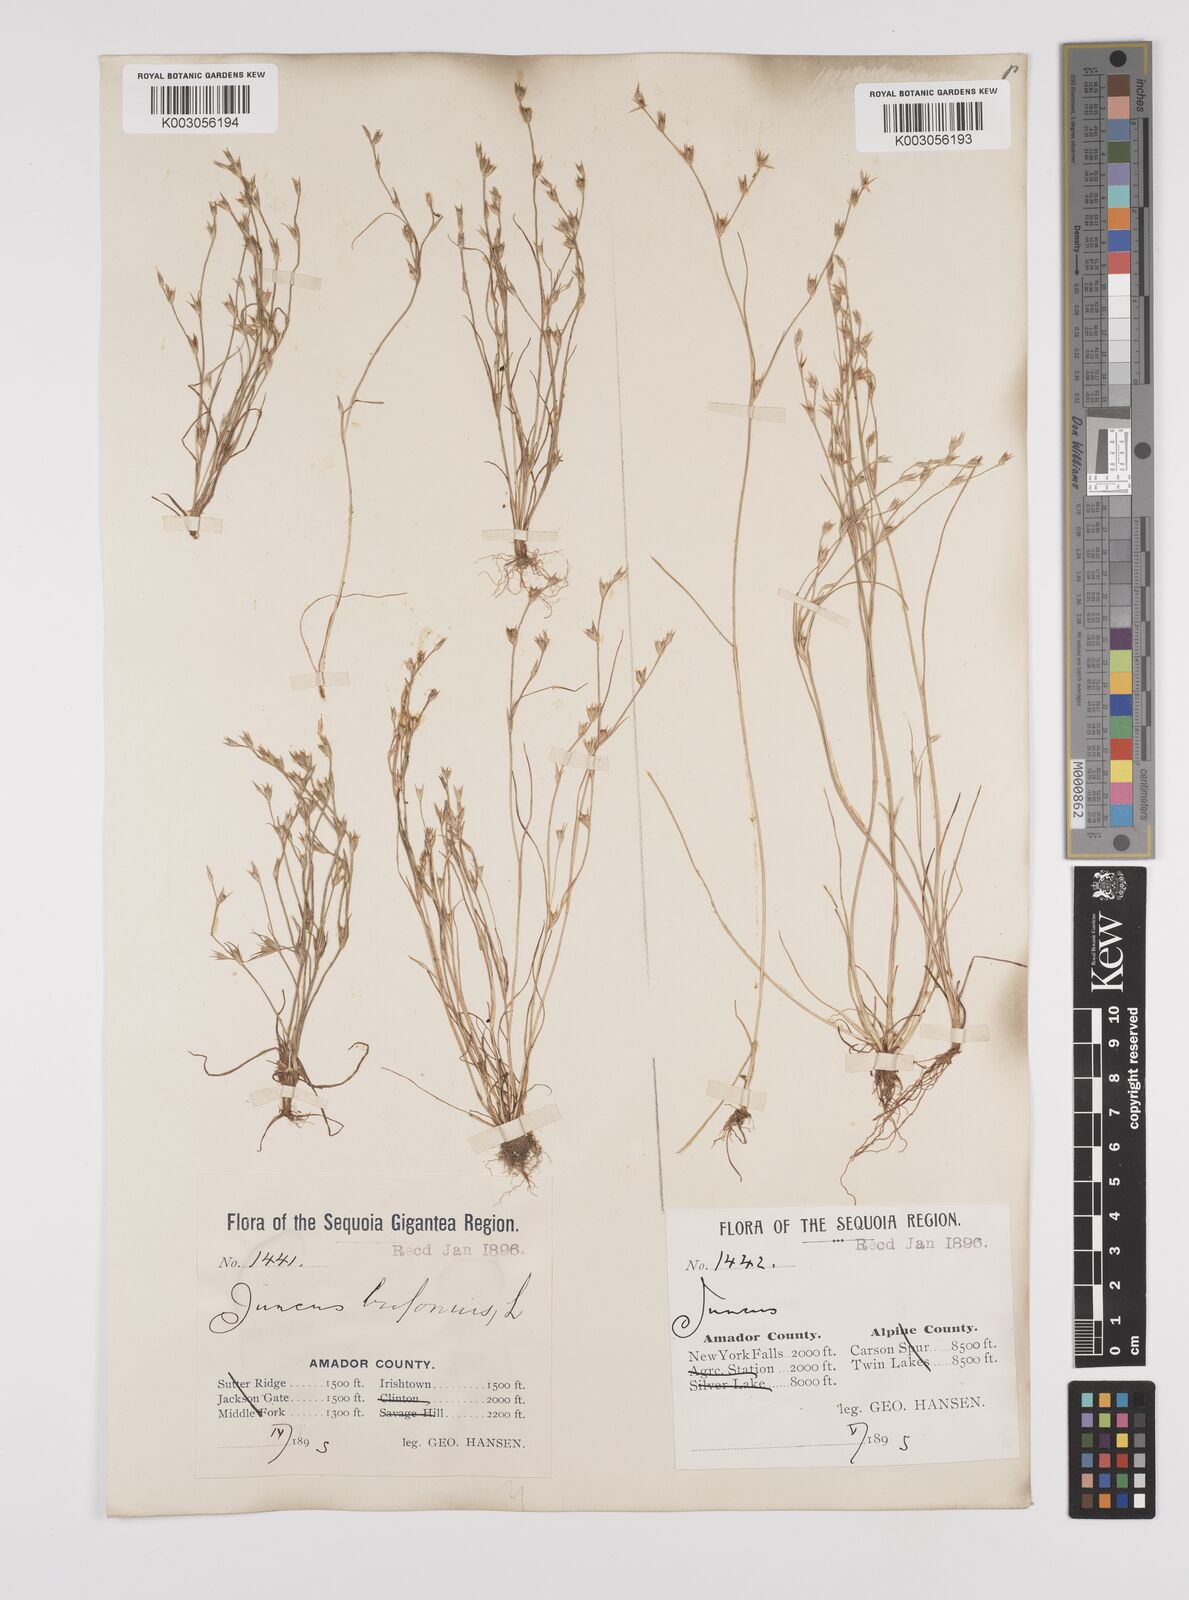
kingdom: Plantae
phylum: Tracheophyta
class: Liliopsida
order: Poales
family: Juncaceae
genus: Juncus
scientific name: Juncus bufonius
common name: Toad rush
